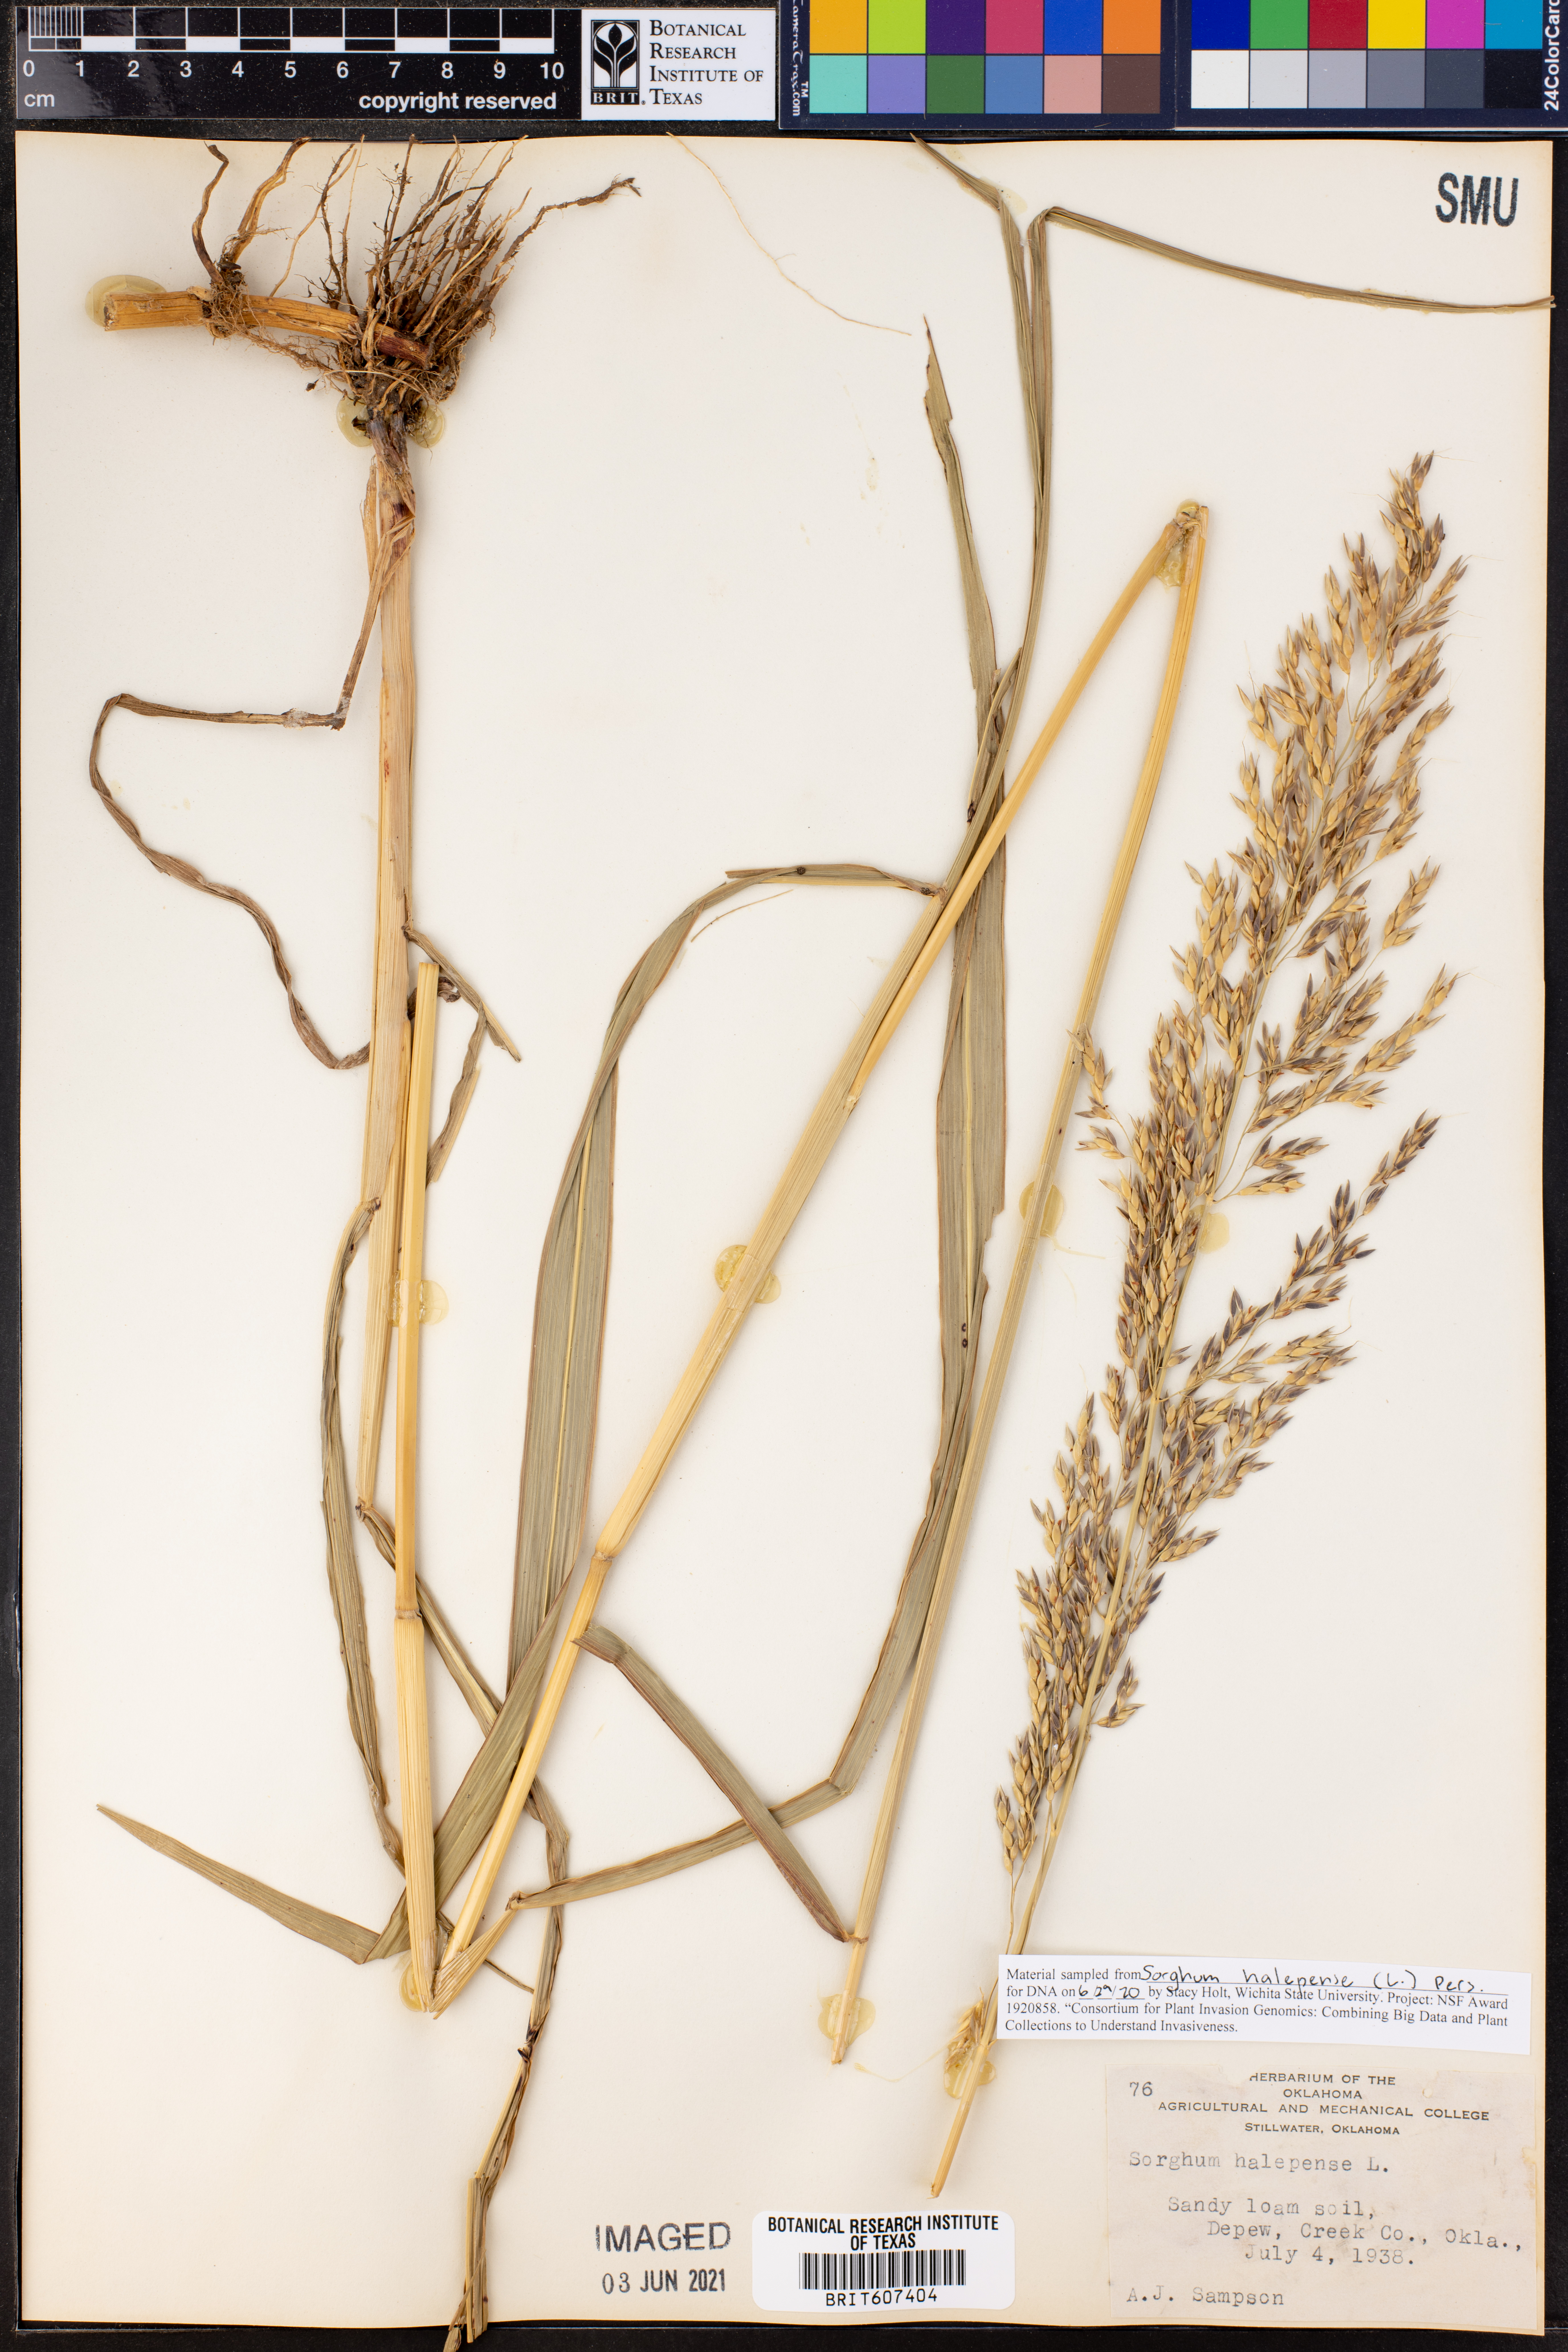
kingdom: Plantae
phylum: Tracheophyta
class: Liliopsida
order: Poales
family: Poaceae
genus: Sorghum
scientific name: Sorghum halepense
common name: Johnson-grass
